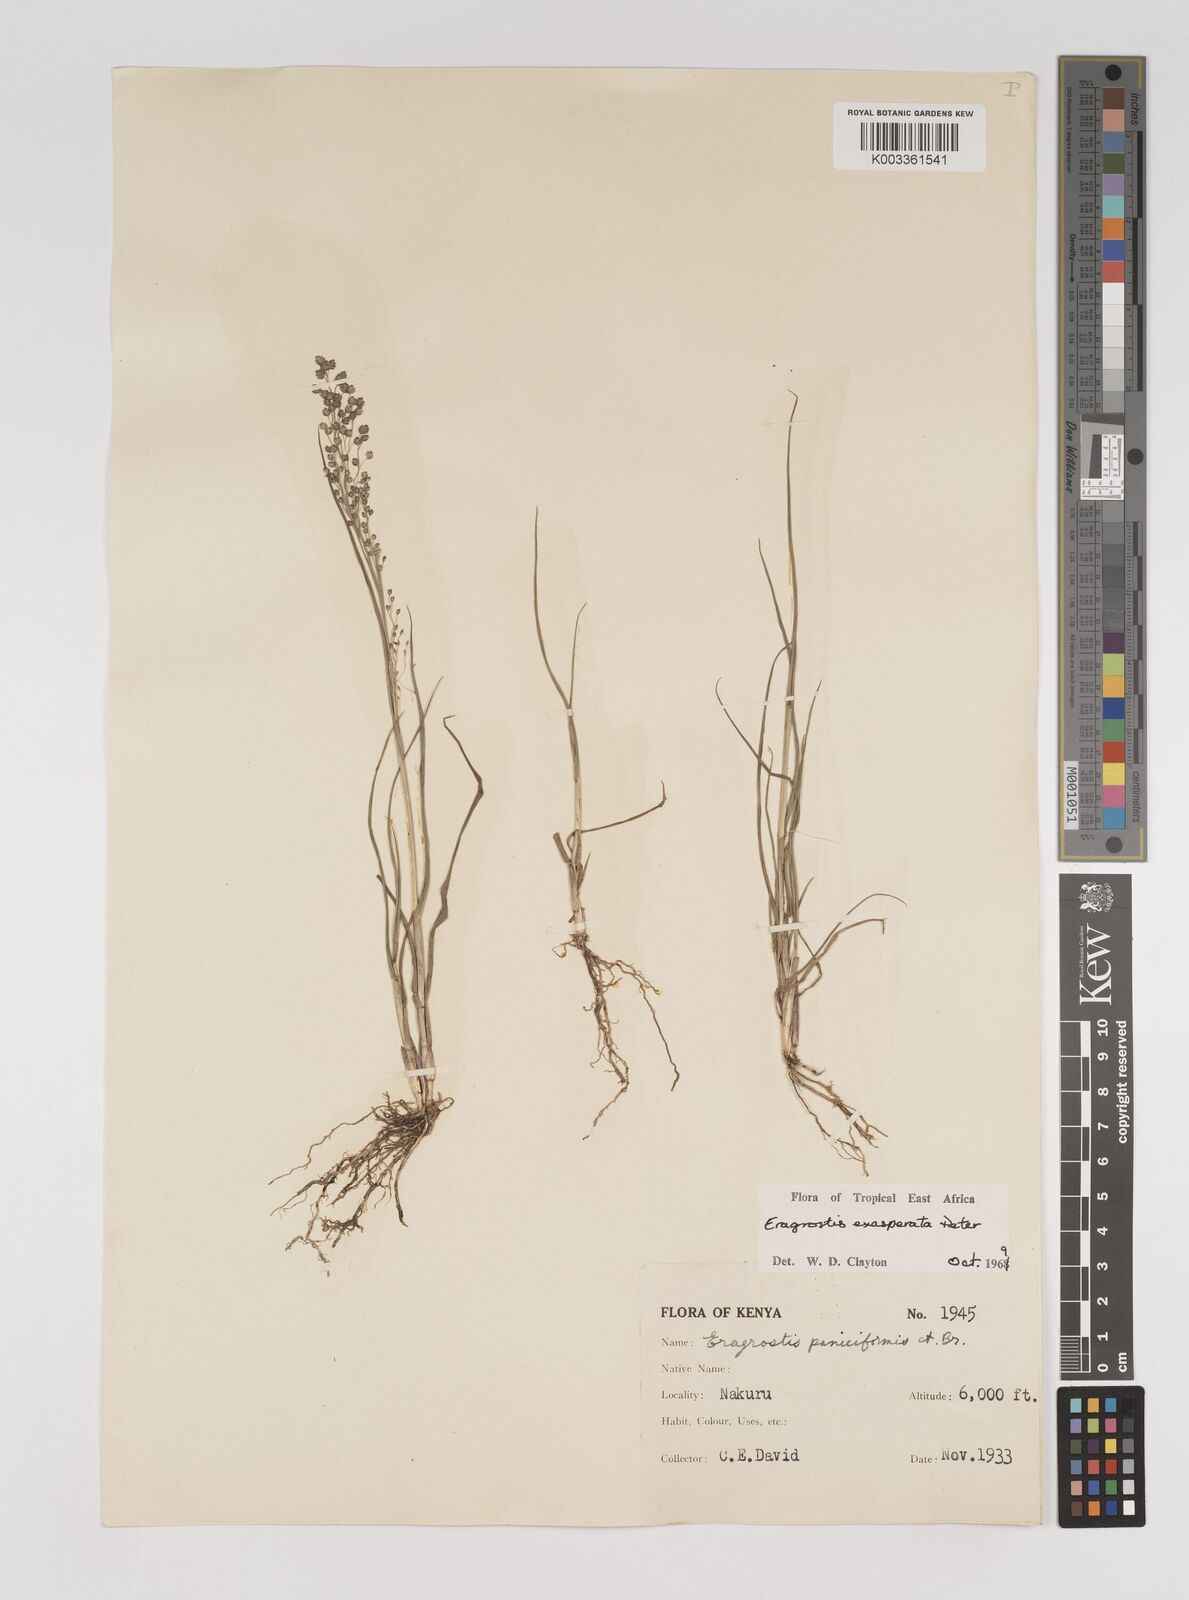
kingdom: Plantae
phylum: Tracheophyta
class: Liliopsida
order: Poales
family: Poaceae
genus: Eragrostis
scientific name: Eragrostis exasperata
